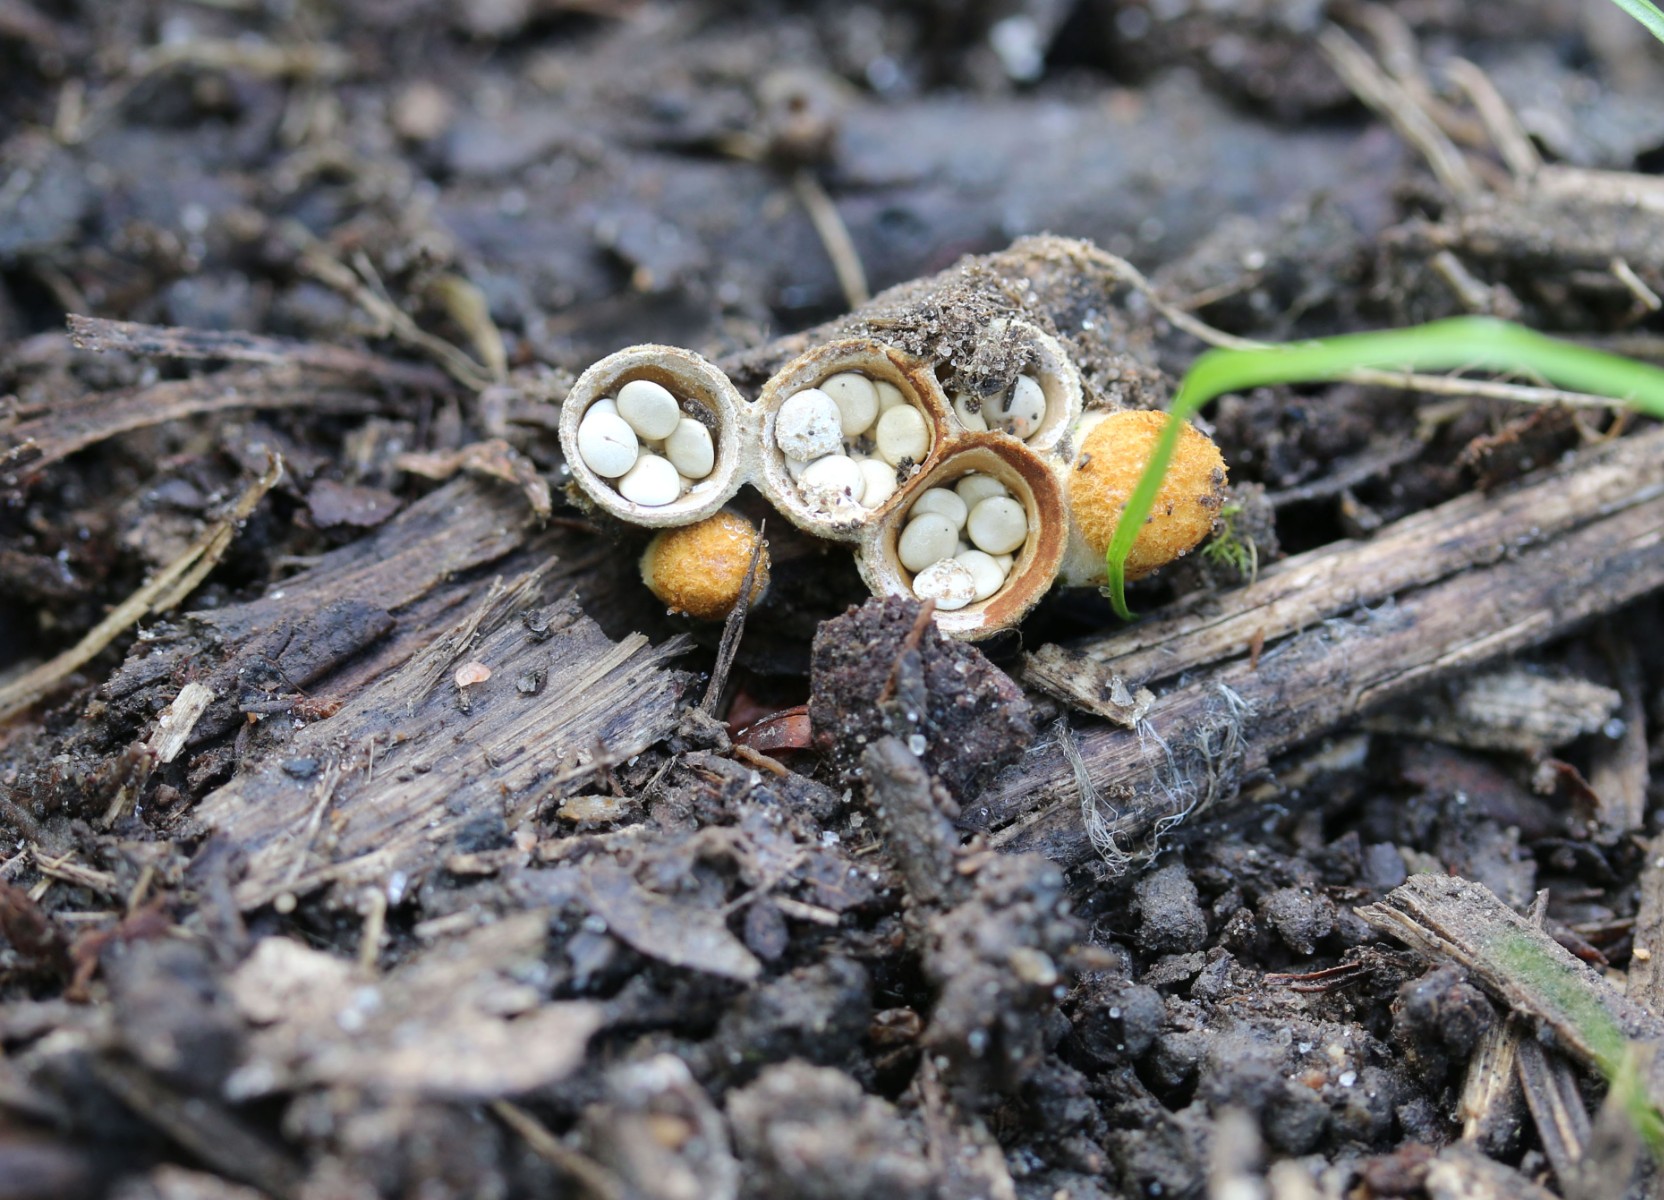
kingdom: Fungi
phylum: Basidiomycota
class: Agaricomycetes
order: Agaricales
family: Nidulariaceae
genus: Crucibulum
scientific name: Crucibulum crucibuliforme
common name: krukkesvamp
